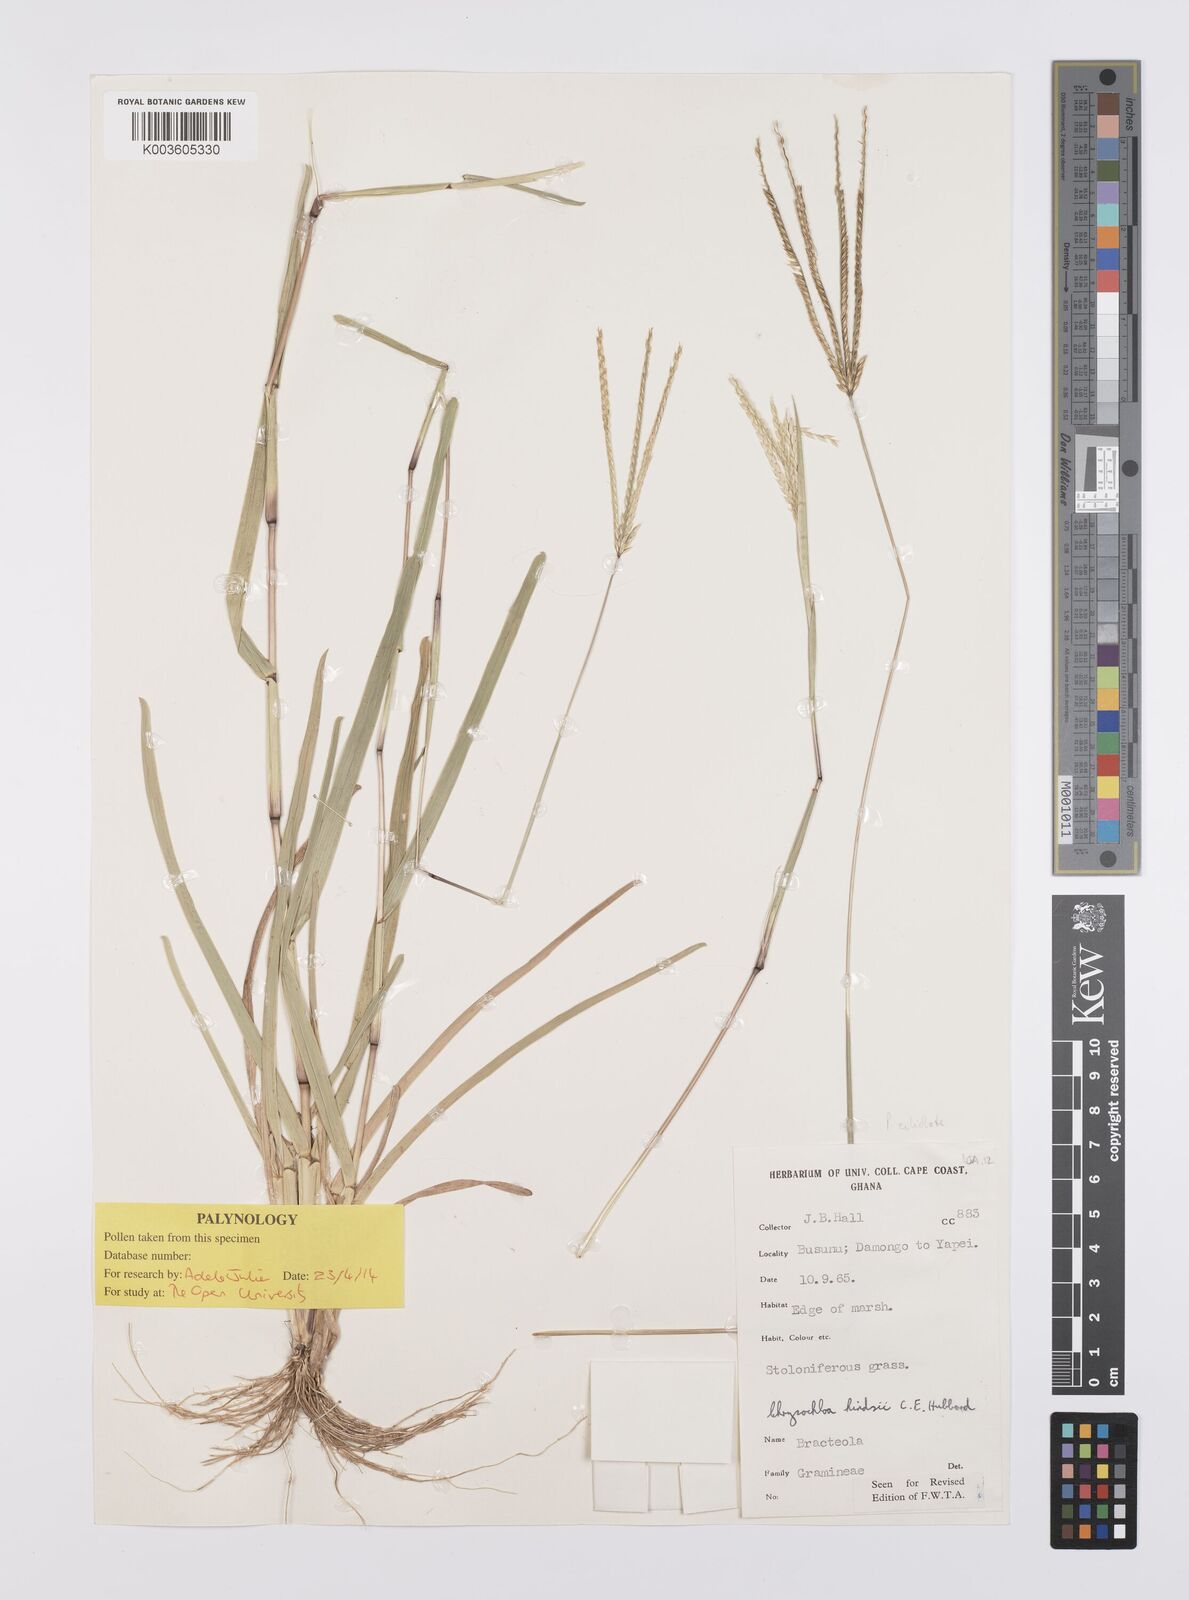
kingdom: Plantae
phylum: Tracheophyta
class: Liliopsida
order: Poales
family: Poaceae
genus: Chrysochloa
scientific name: Chrysochloa hindsii
